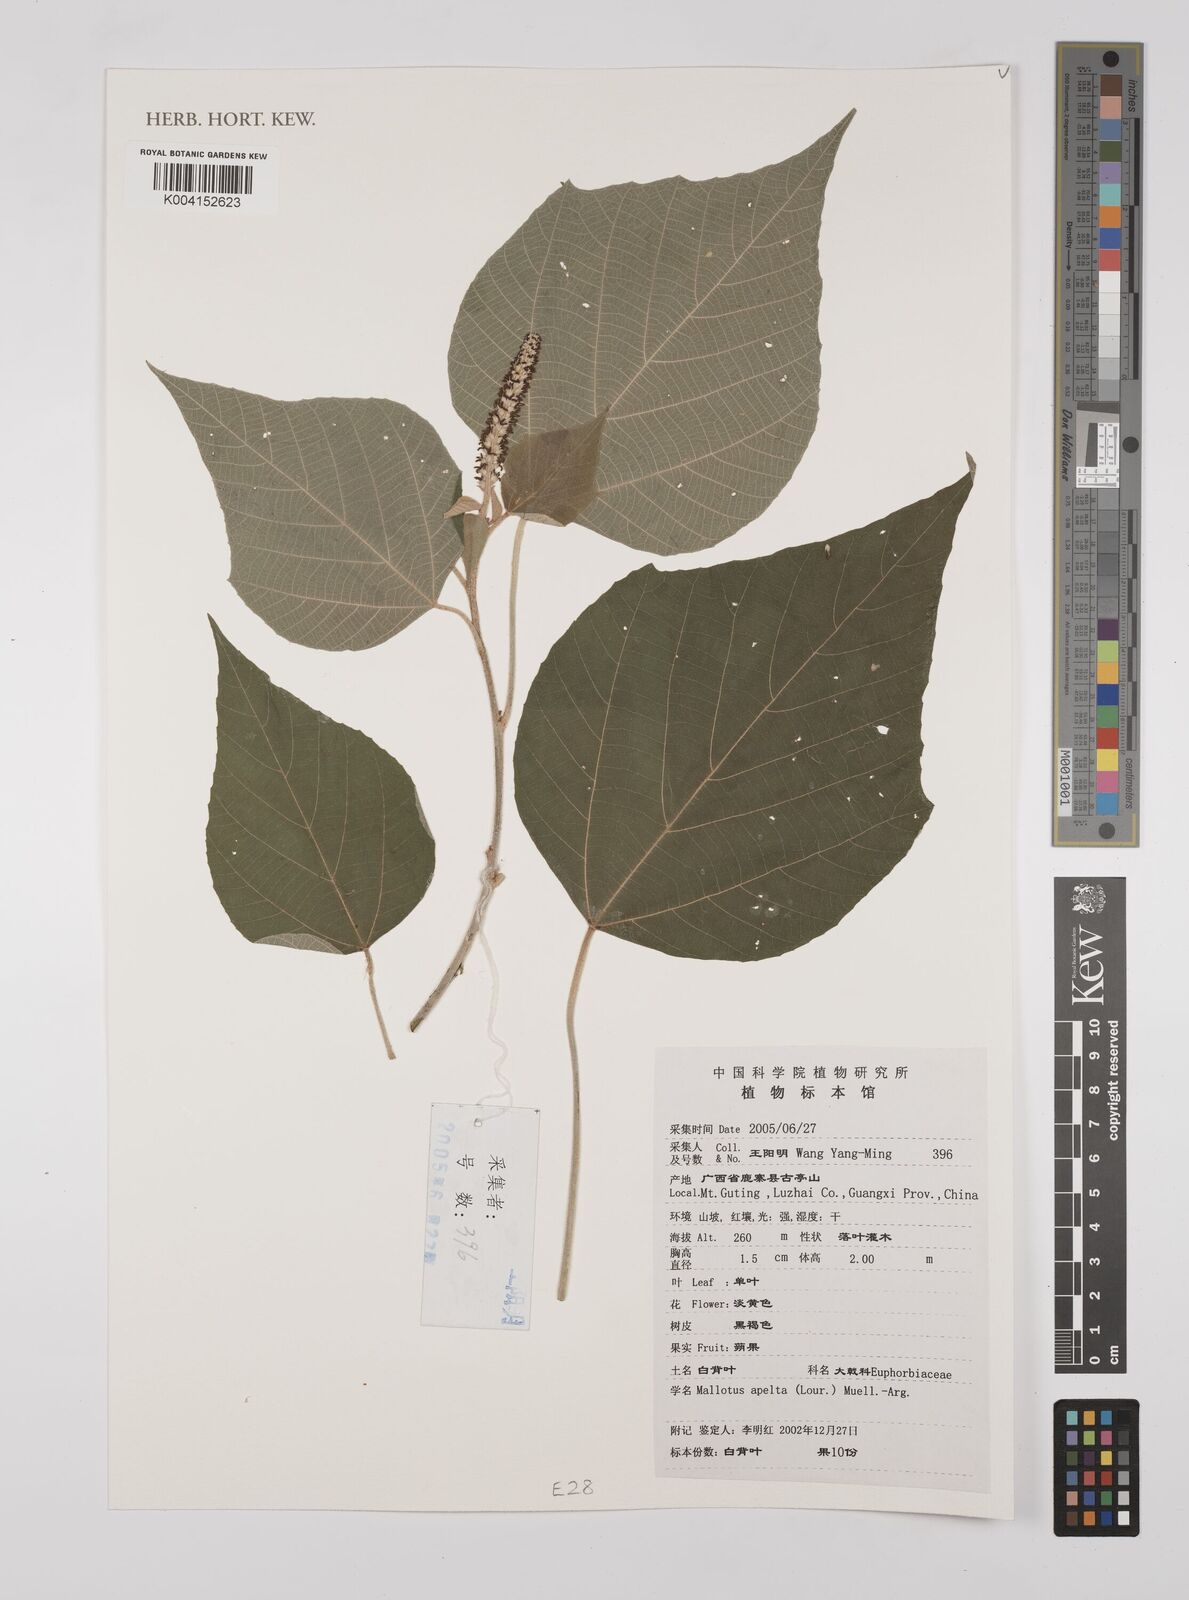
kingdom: Plantae
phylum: Tracheophyta
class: Magnoliopsida
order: Malpighiales
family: Euphorbiaceae
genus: Mallotus
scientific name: Mallotus apelta
